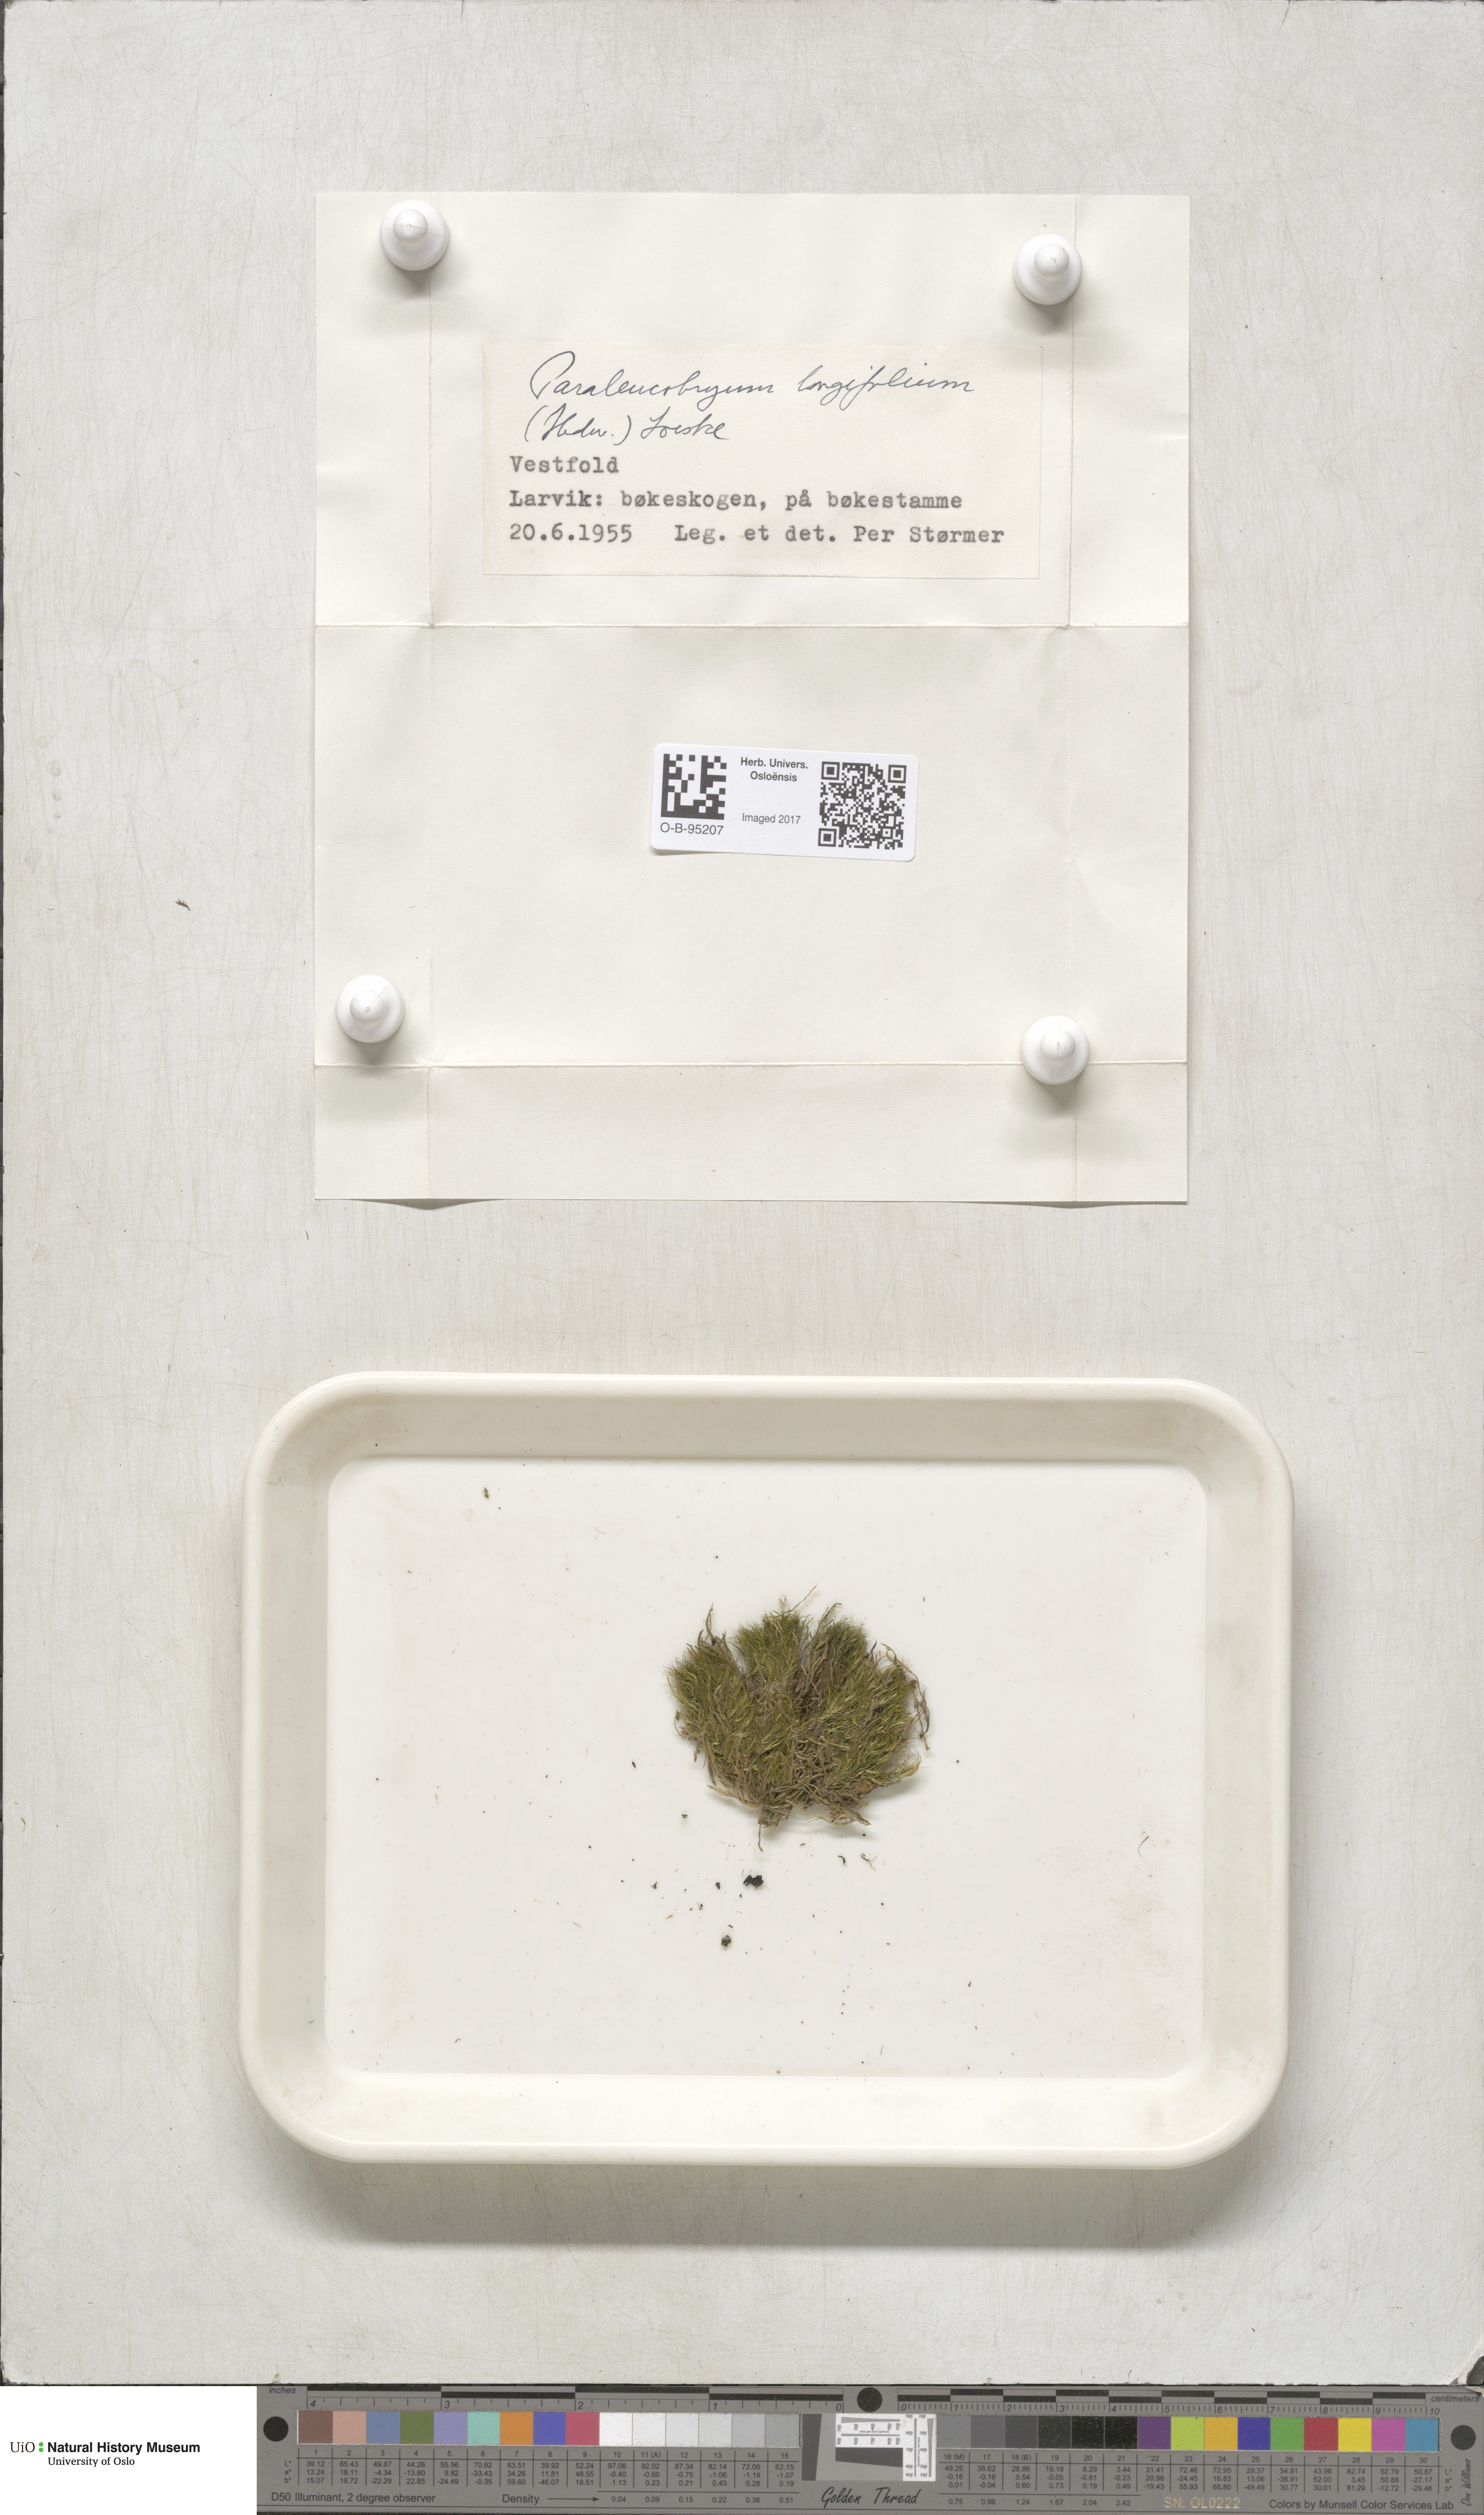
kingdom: Plantae
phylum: Bryophyta
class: Bryopsida
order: Dicranales
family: Dicranaceae
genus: Paraleucobryum
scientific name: Paraleucobryum longifolium
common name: Long-leaved fork moss
